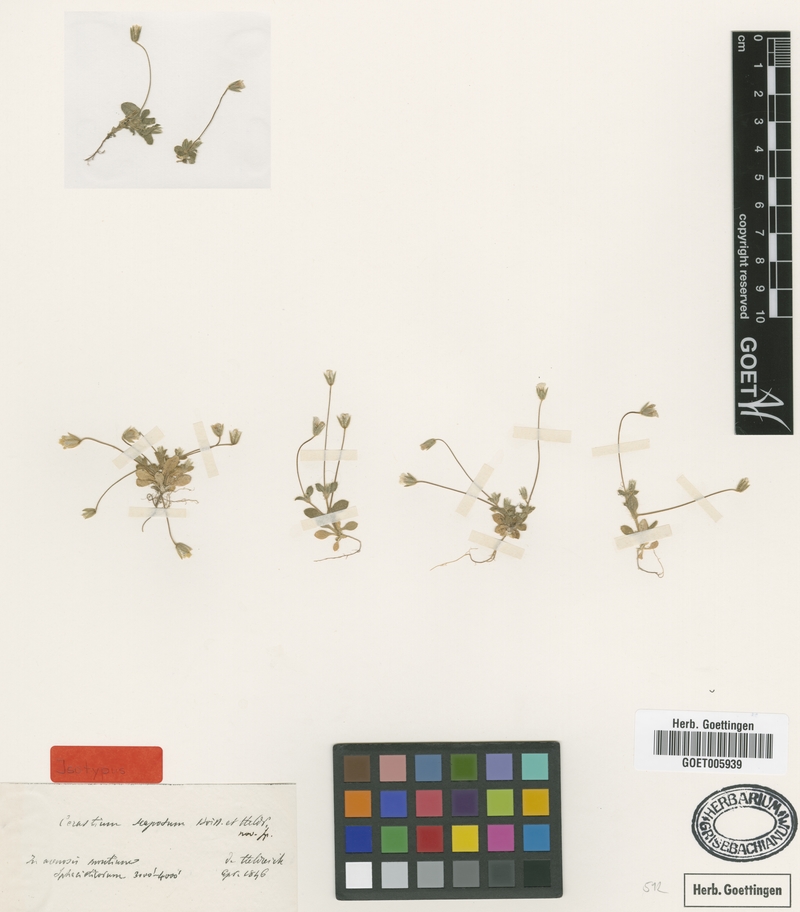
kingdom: Plantae
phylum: Tracheophyta
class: Magnoliopsida
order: Caryophyllales
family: Caryophyllaceae
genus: Cerastium
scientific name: Cerastium scaposum
